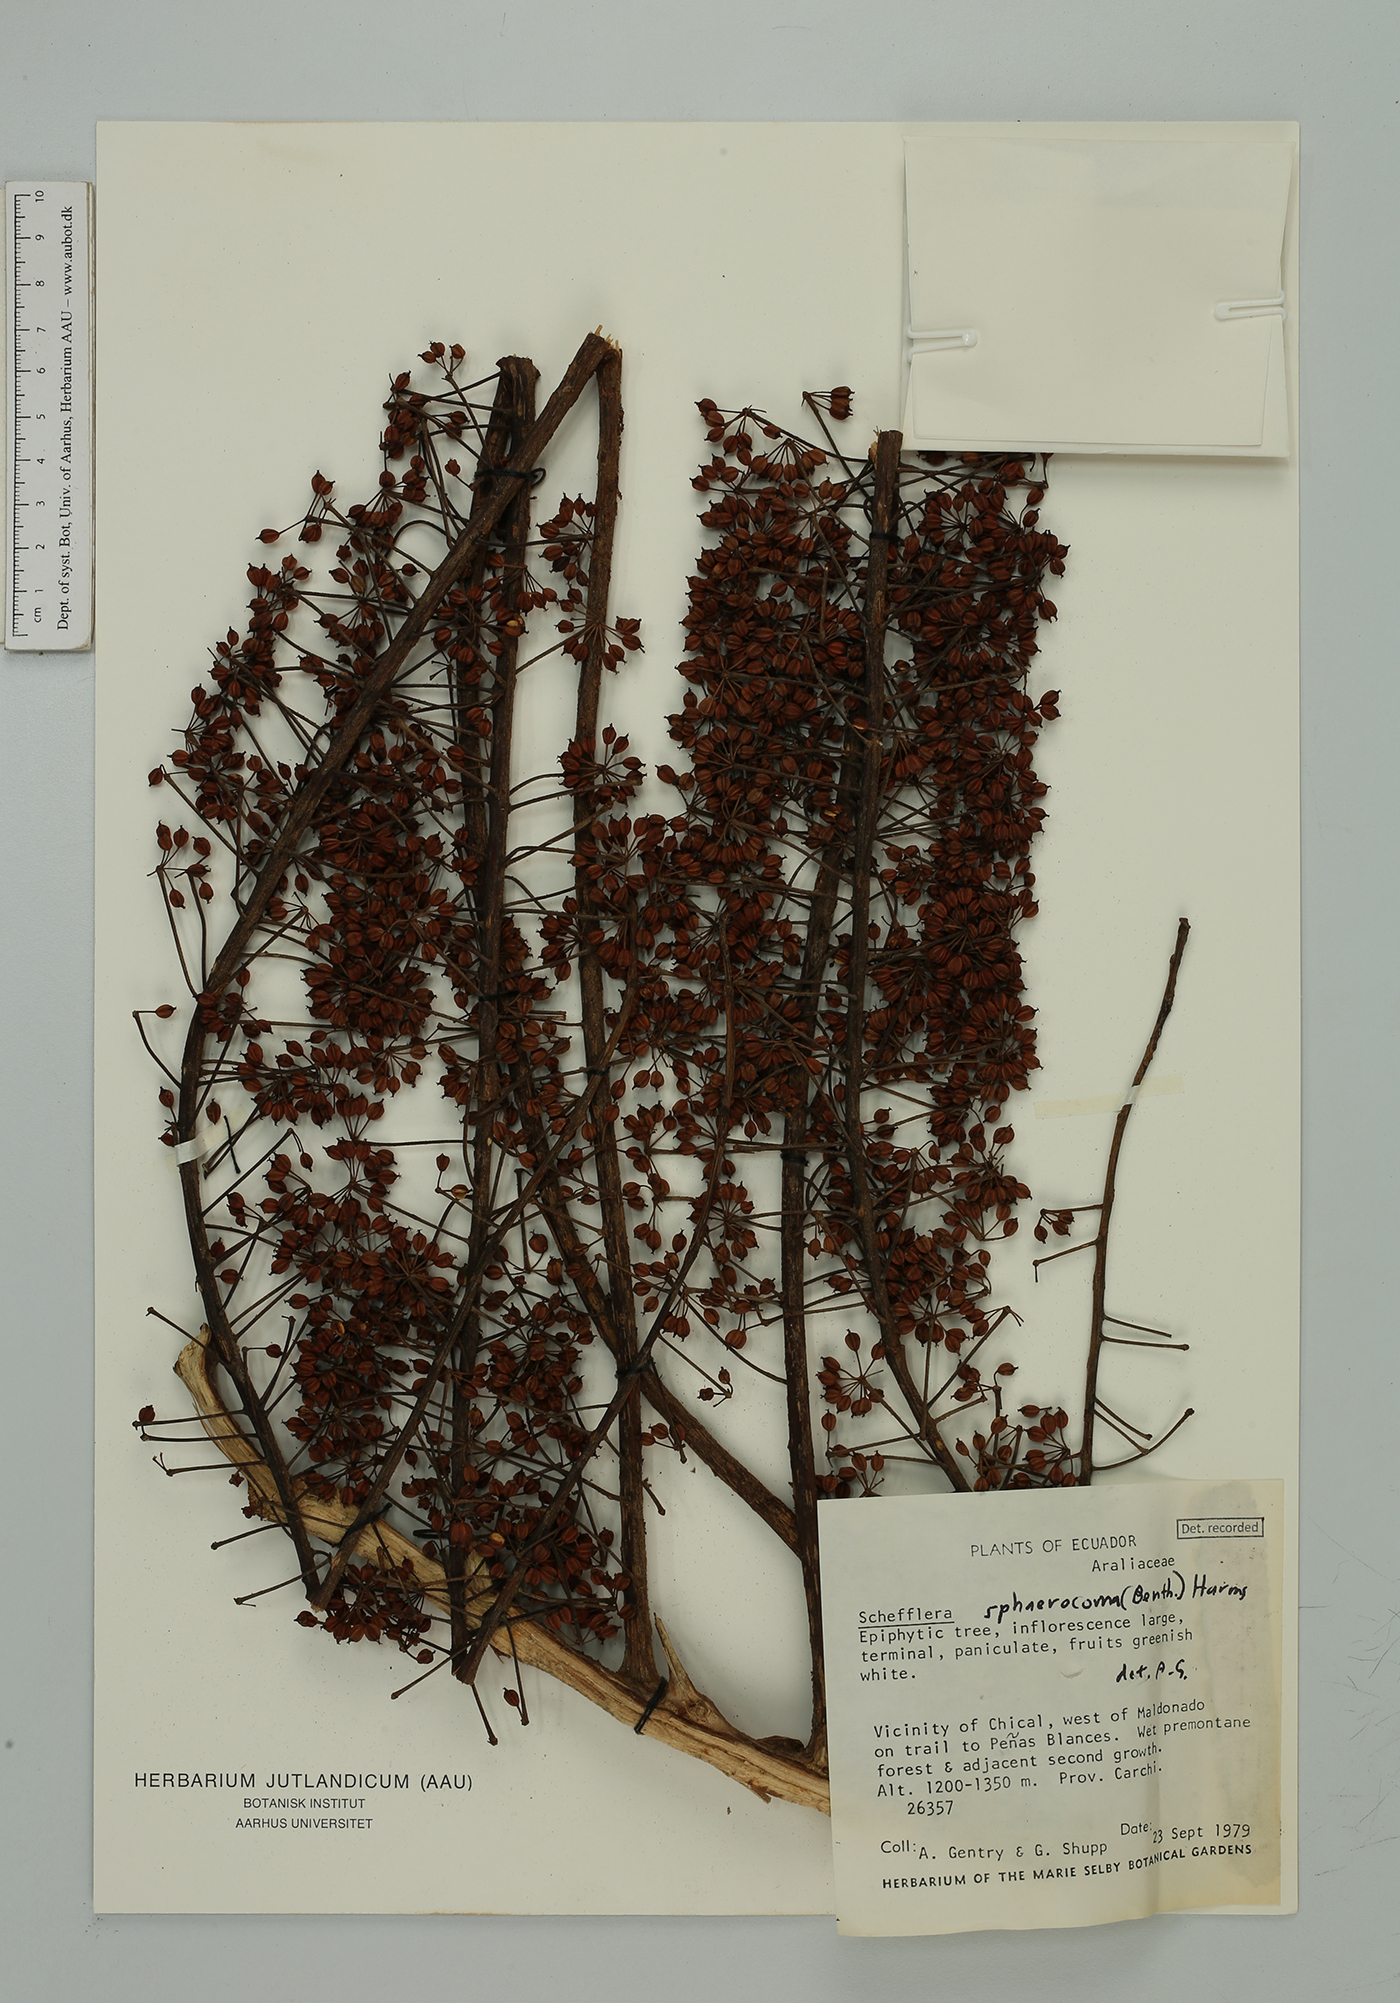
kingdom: Plantae
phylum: Tracheophyta
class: Magnoliopsida
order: Apiales
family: Araliaceae
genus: Sciodaphyllum
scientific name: Sciodaphyllum sphaerocoma
